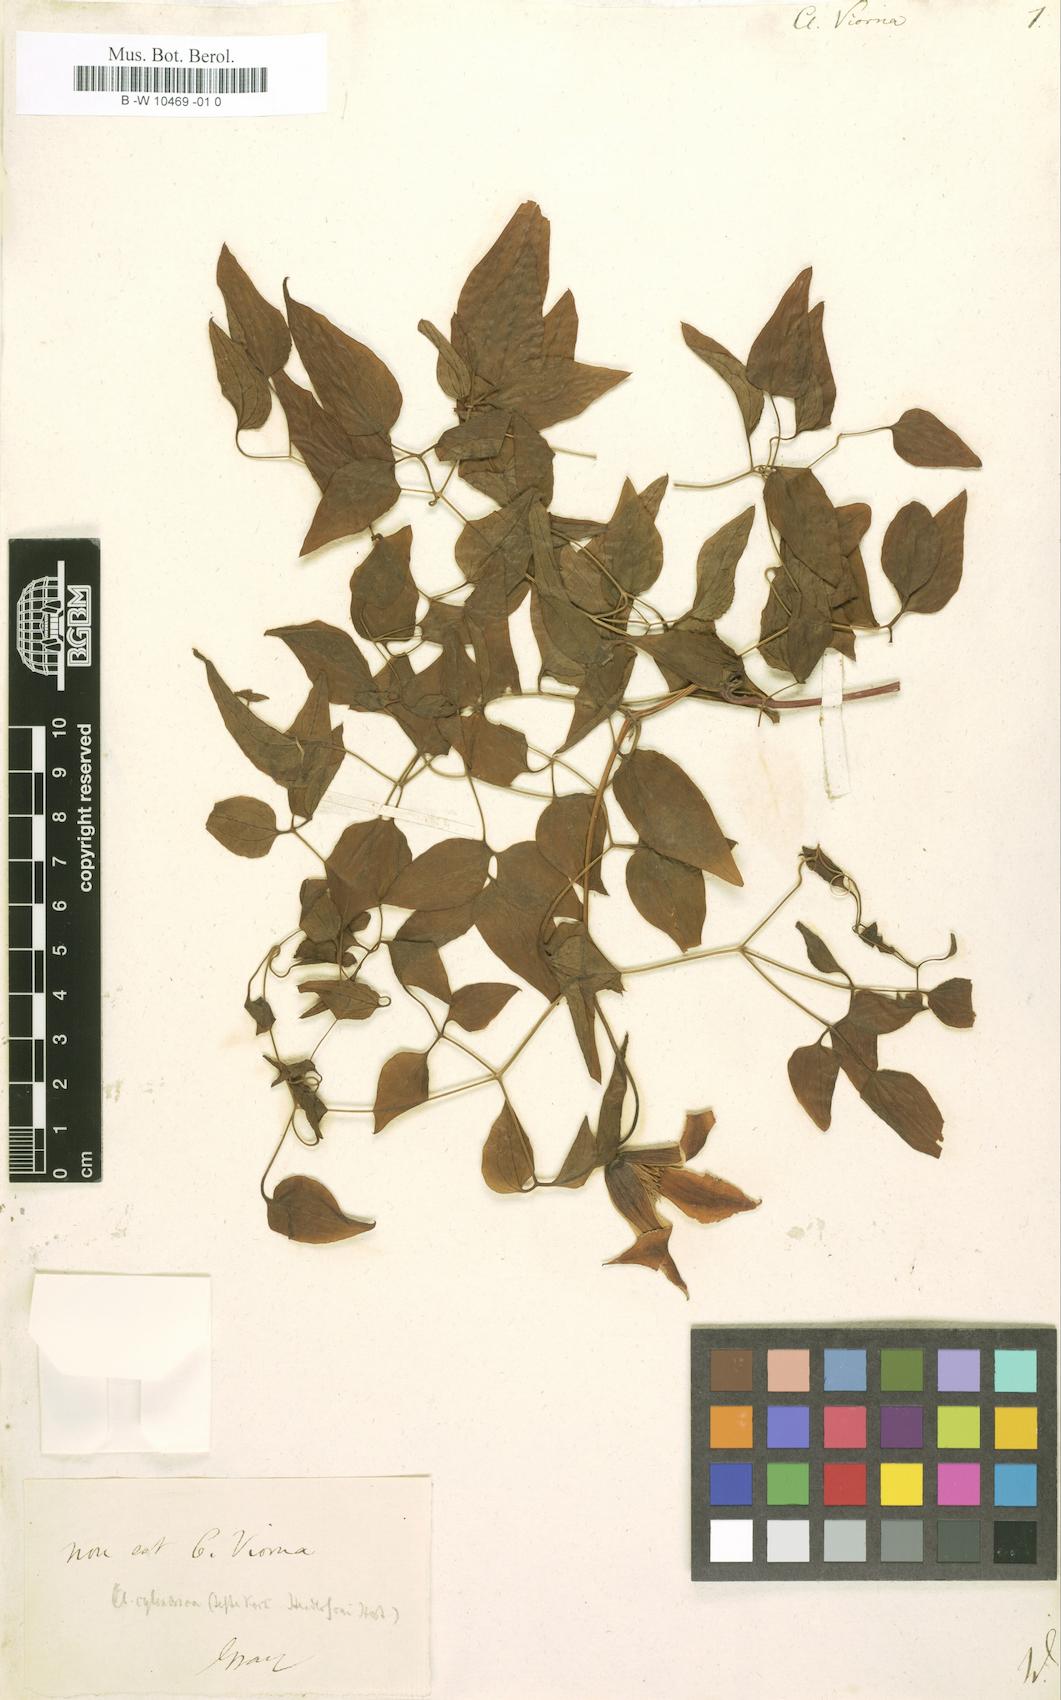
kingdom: Plantae
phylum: Tracheophyta
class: Magnoliopsida
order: Ranunculales
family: Ranunculaceae
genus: Clematis
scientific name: Clematis viorna
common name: Leather-flower
